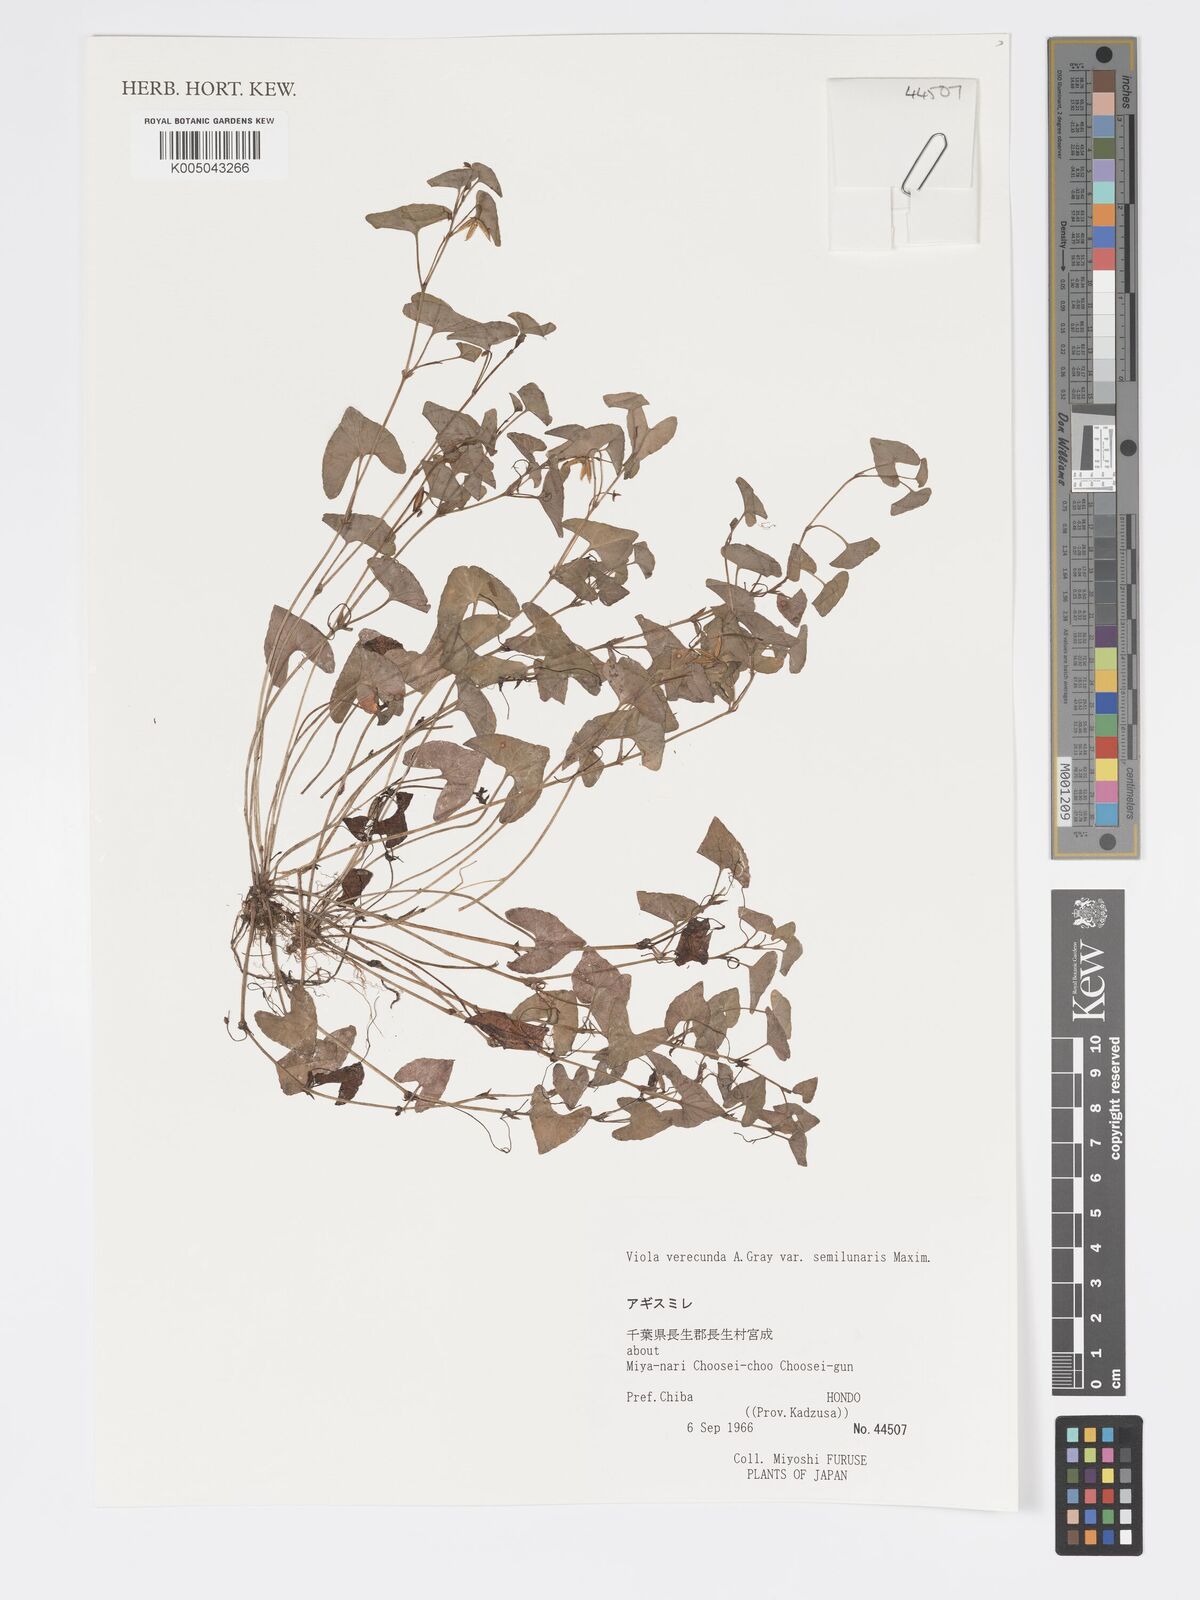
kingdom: Plantae
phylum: Tracheophyta
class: Magnoliopsida
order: Malpighiales
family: Violaceae
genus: Viola
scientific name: Viola hamiltoniana
